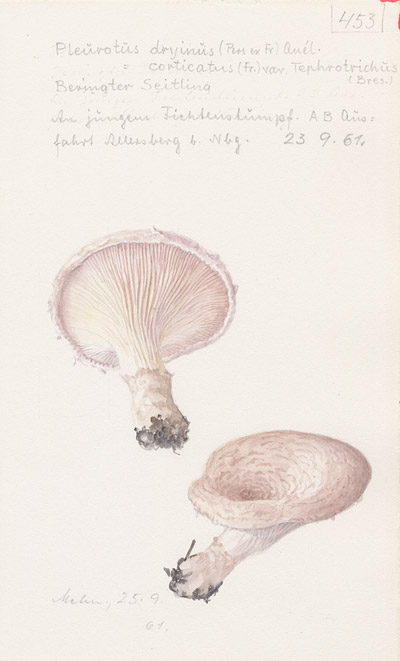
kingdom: Fungi
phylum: Basidiomycota
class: Agaricomycetes
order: Agaricales
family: Pleurotaceae
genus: Pleurotus
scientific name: Pleurotus dryinus
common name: Veiled oyster
